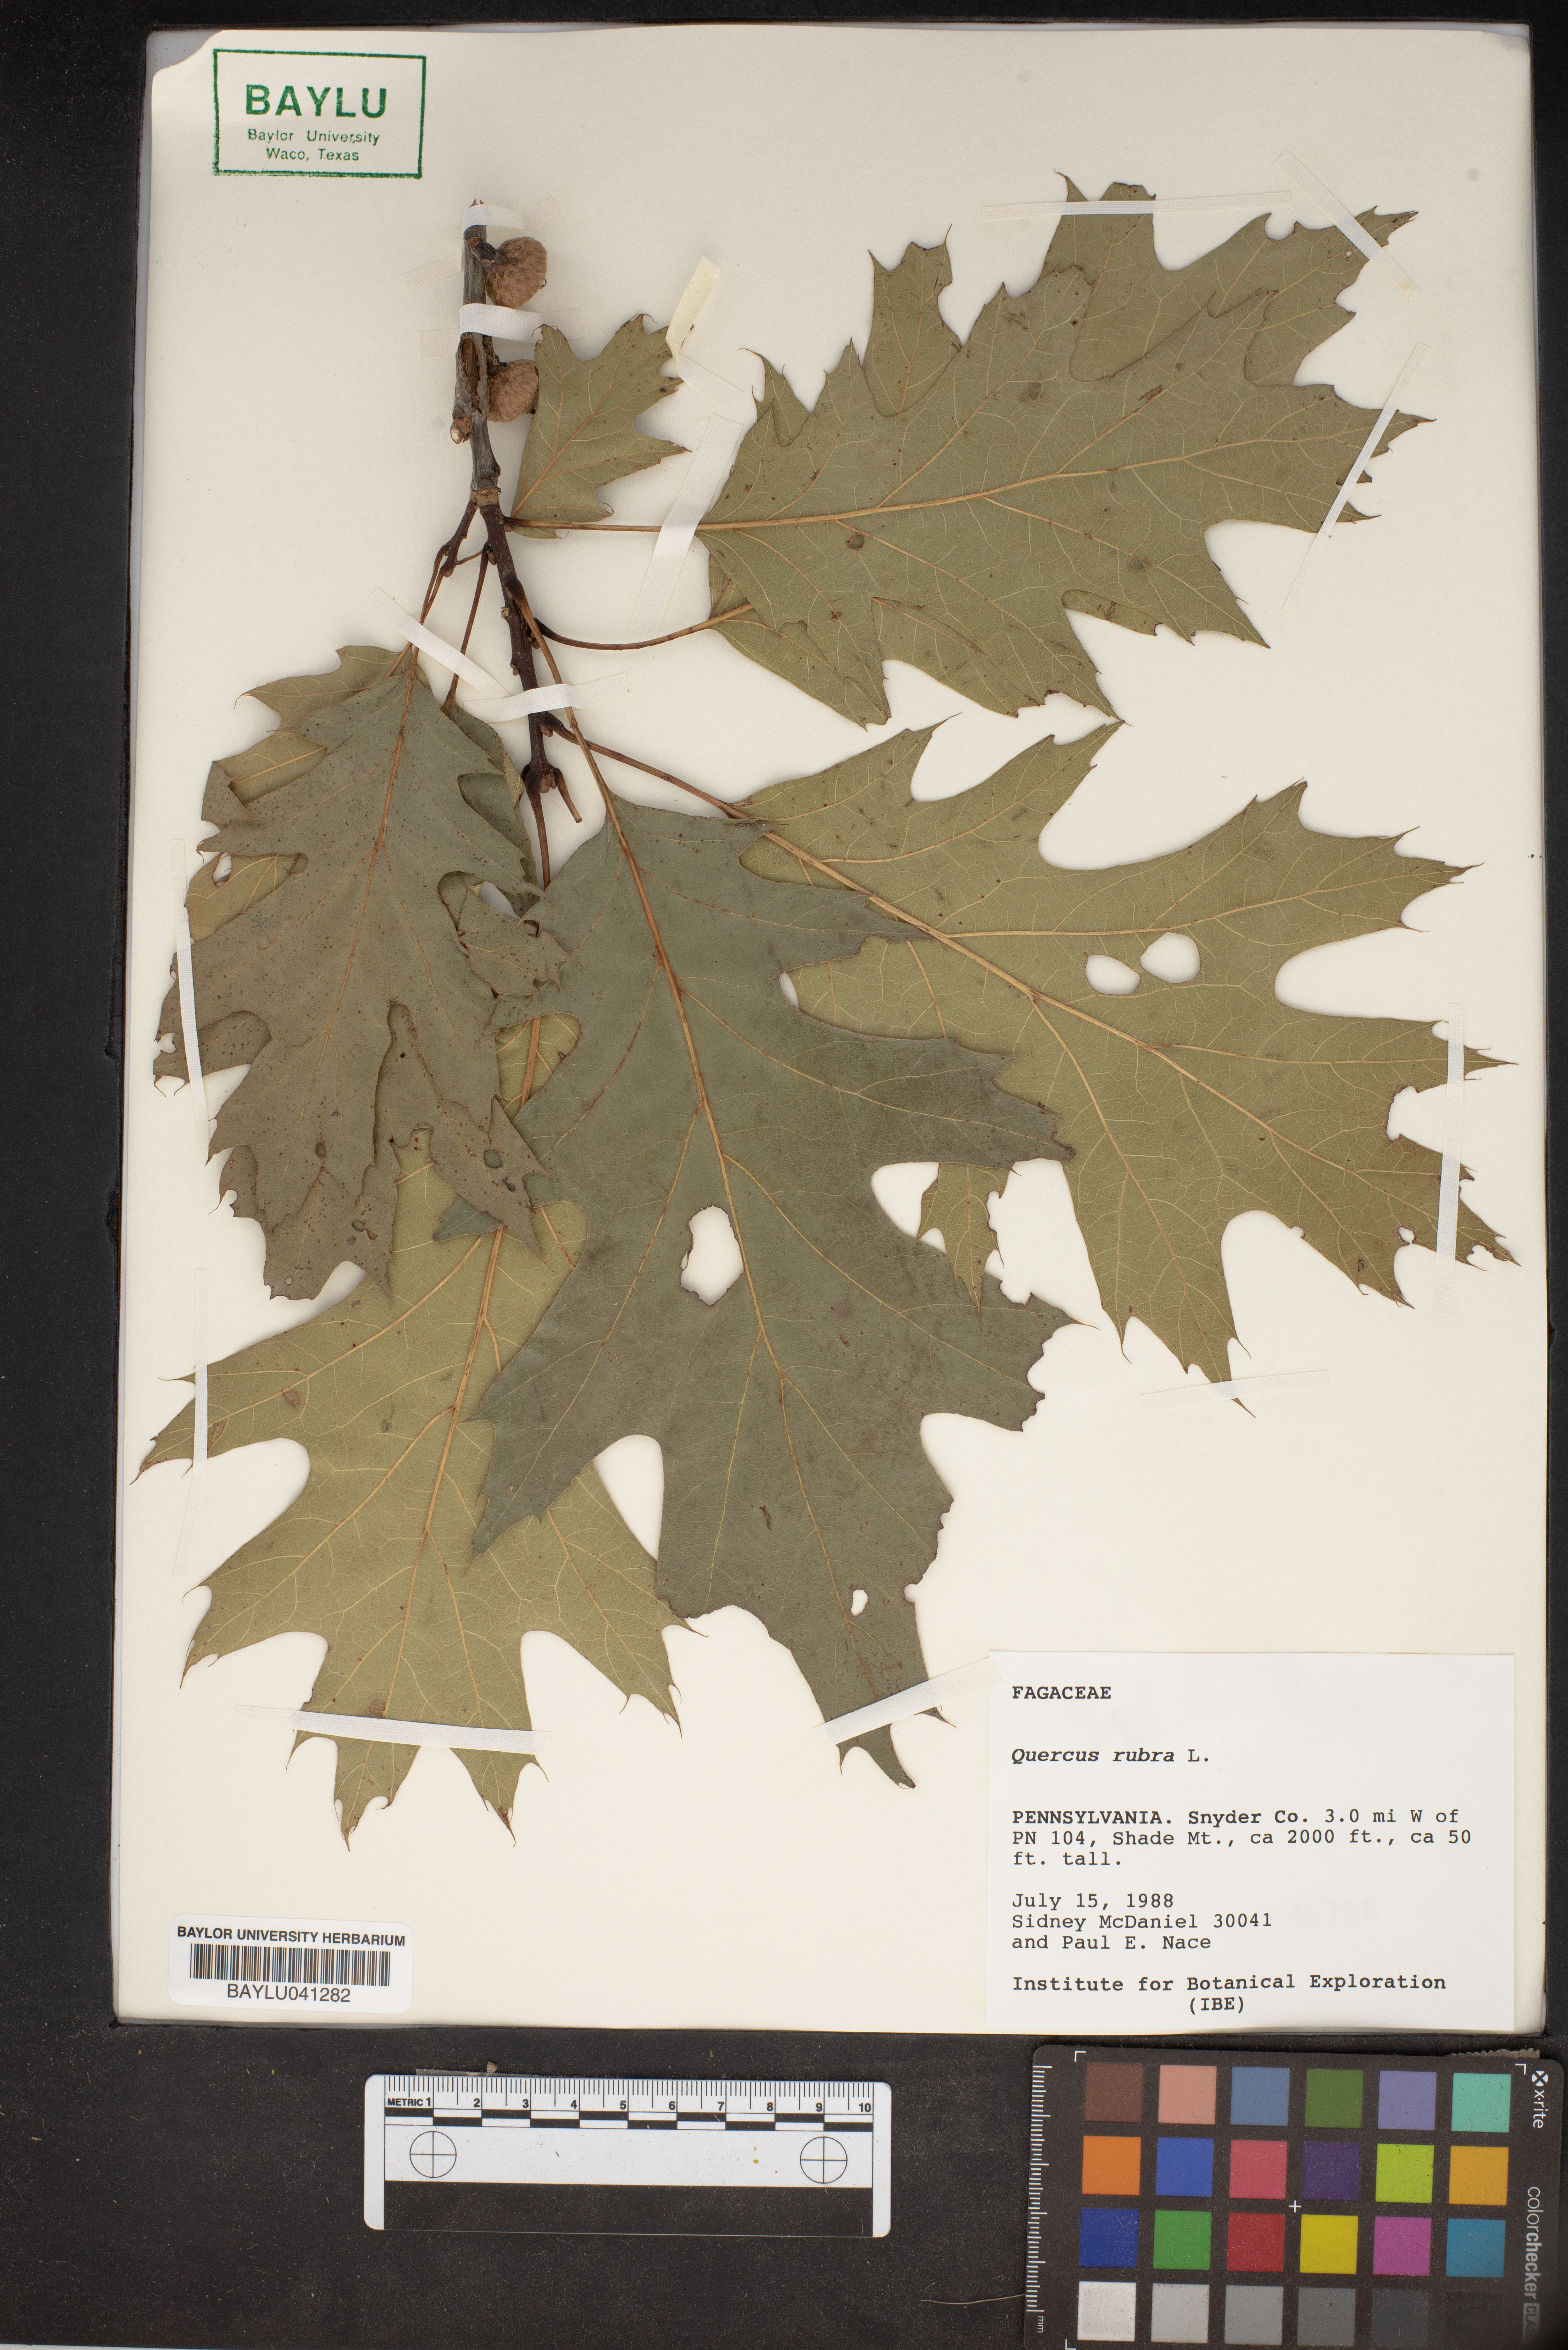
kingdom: Plantae
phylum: Tracheophyta
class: Magnoliopsida
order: Fagales
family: Fagaceae
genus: Quercus
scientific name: Quercus rubra
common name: Red oak
